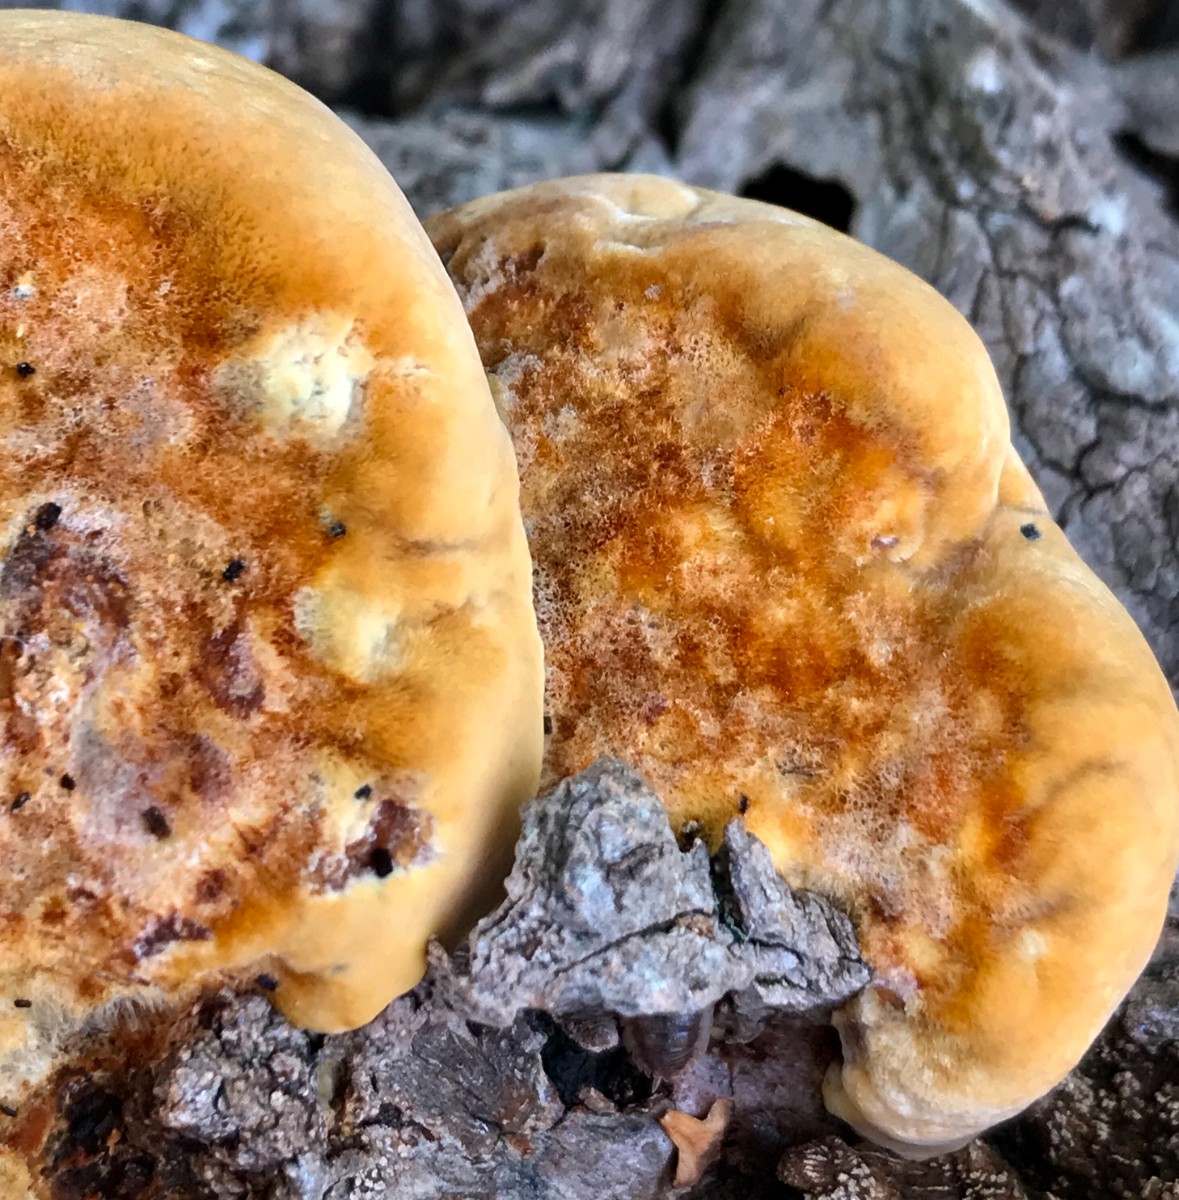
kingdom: Fungi
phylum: Basidiomycota
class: Agaricomycetes
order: Hymenochaetales
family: Hymenochaetaceae
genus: Inonotus
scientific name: Inonotus
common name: spejlporesvamp
